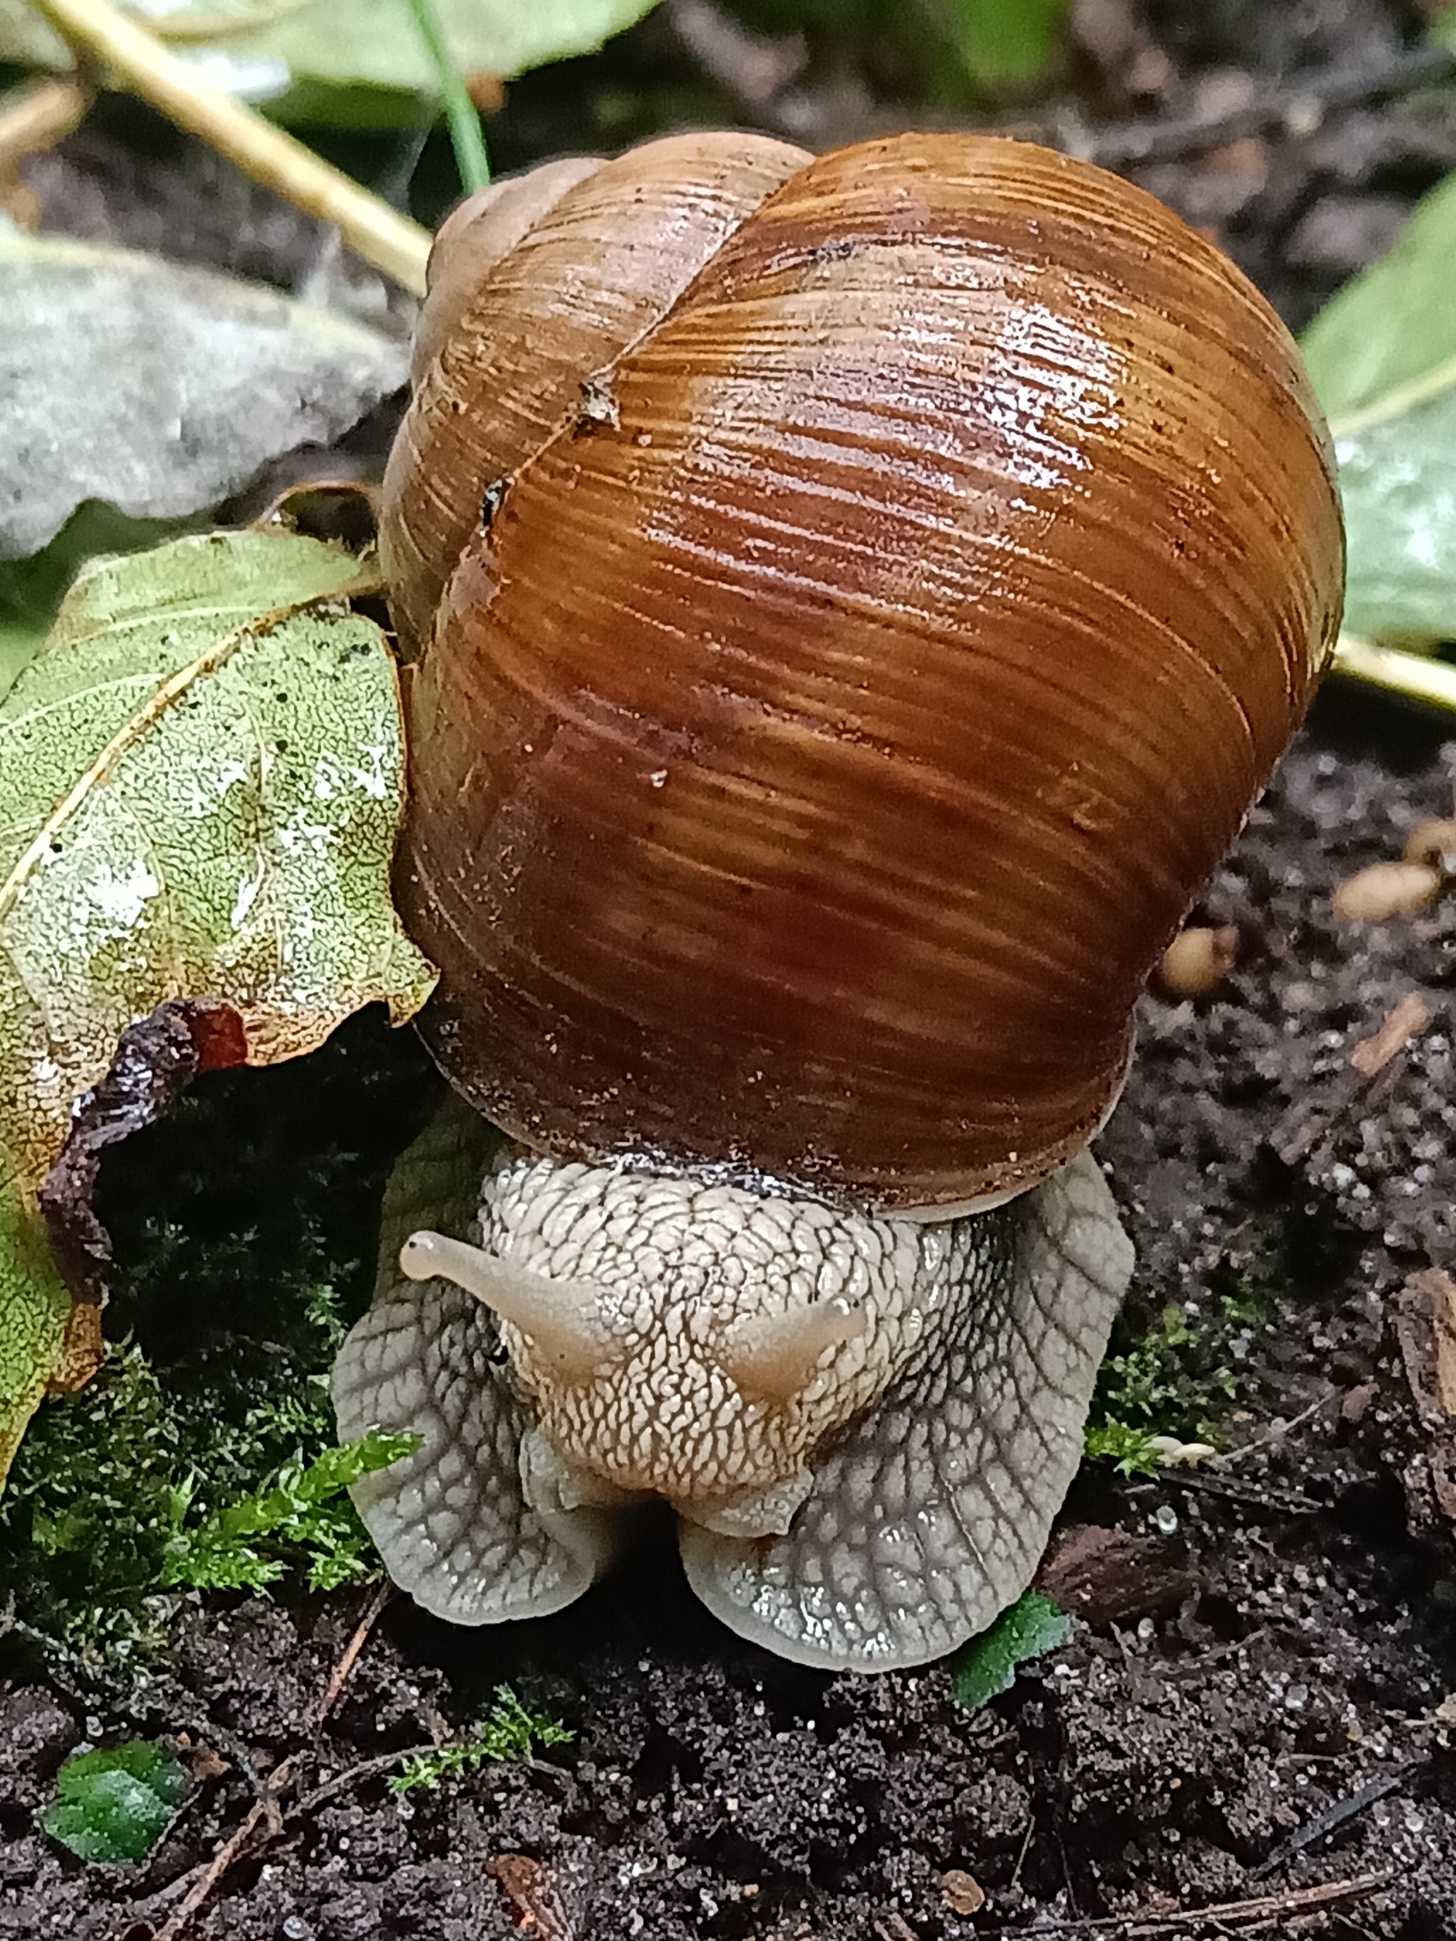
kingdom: Animalia
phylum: Mollusca
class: Gastropoda
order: Stylommatophora
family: Helicidae
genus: Helix
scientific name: Helix pomatia
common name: Vinbjergsnegl
